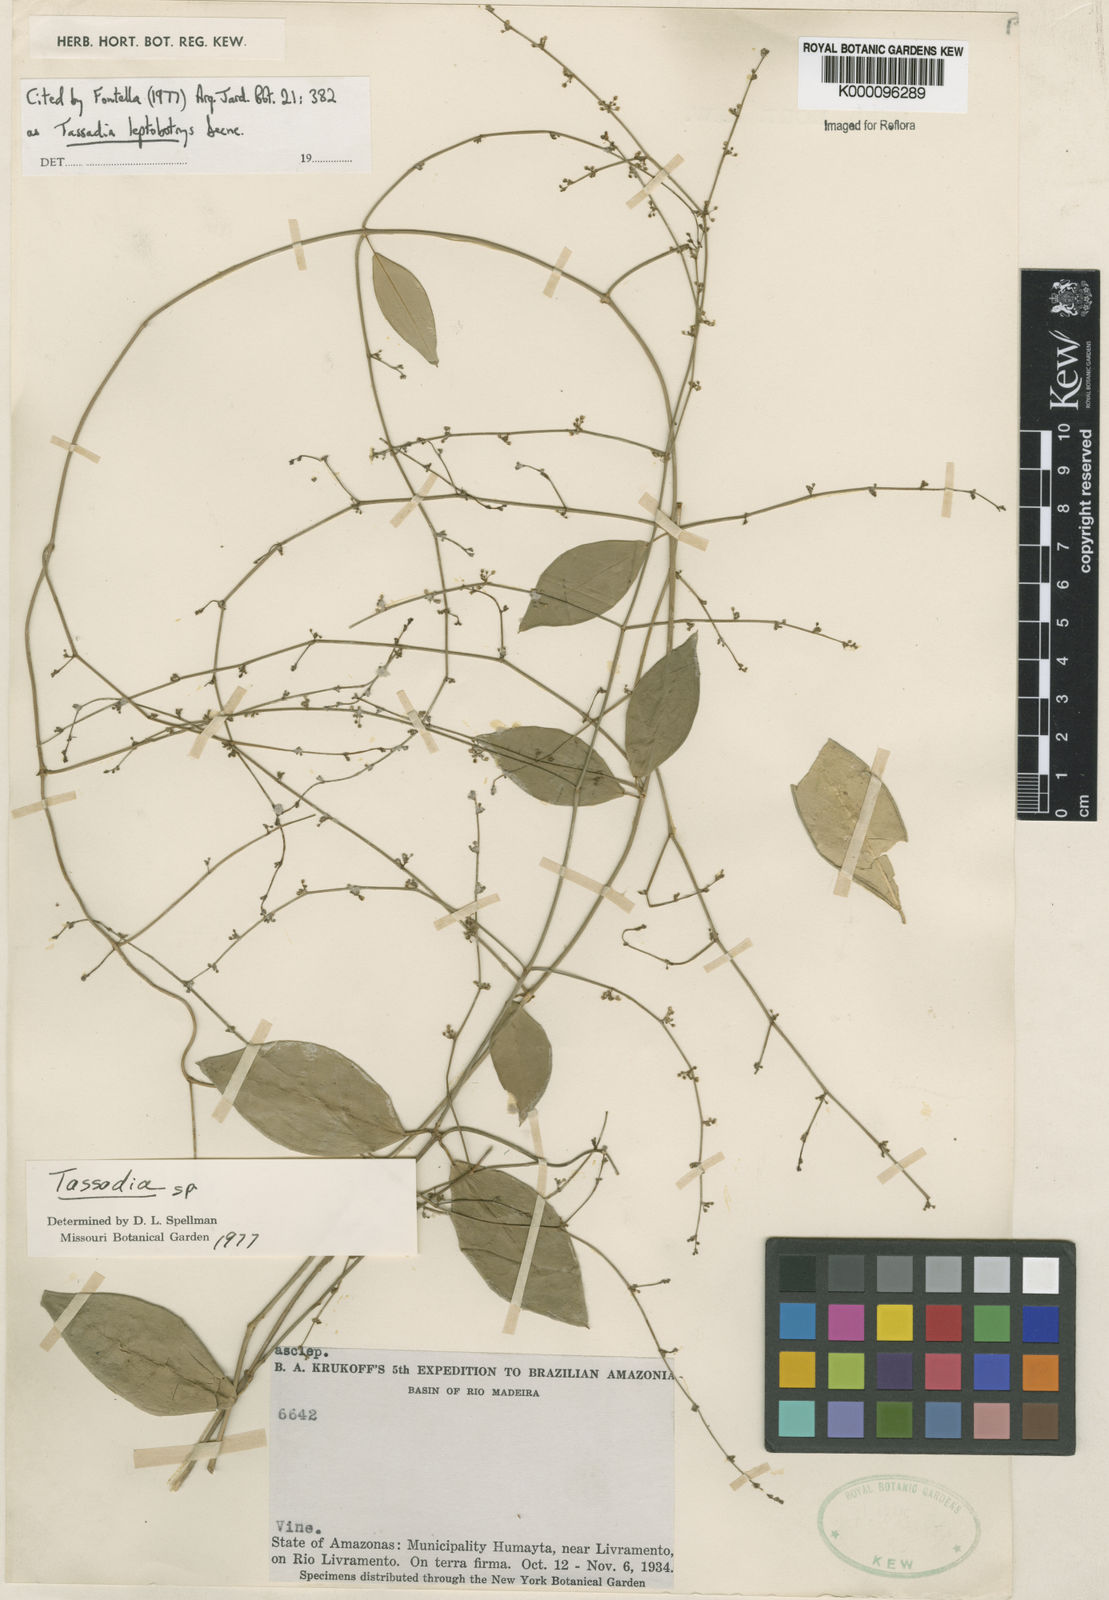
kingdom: Plantae
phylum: Tracheophyta
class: Magnoliopsida
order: Gentianales
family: Apocynaceae
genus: Tassadia
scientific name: Tassadia leptobotrys
